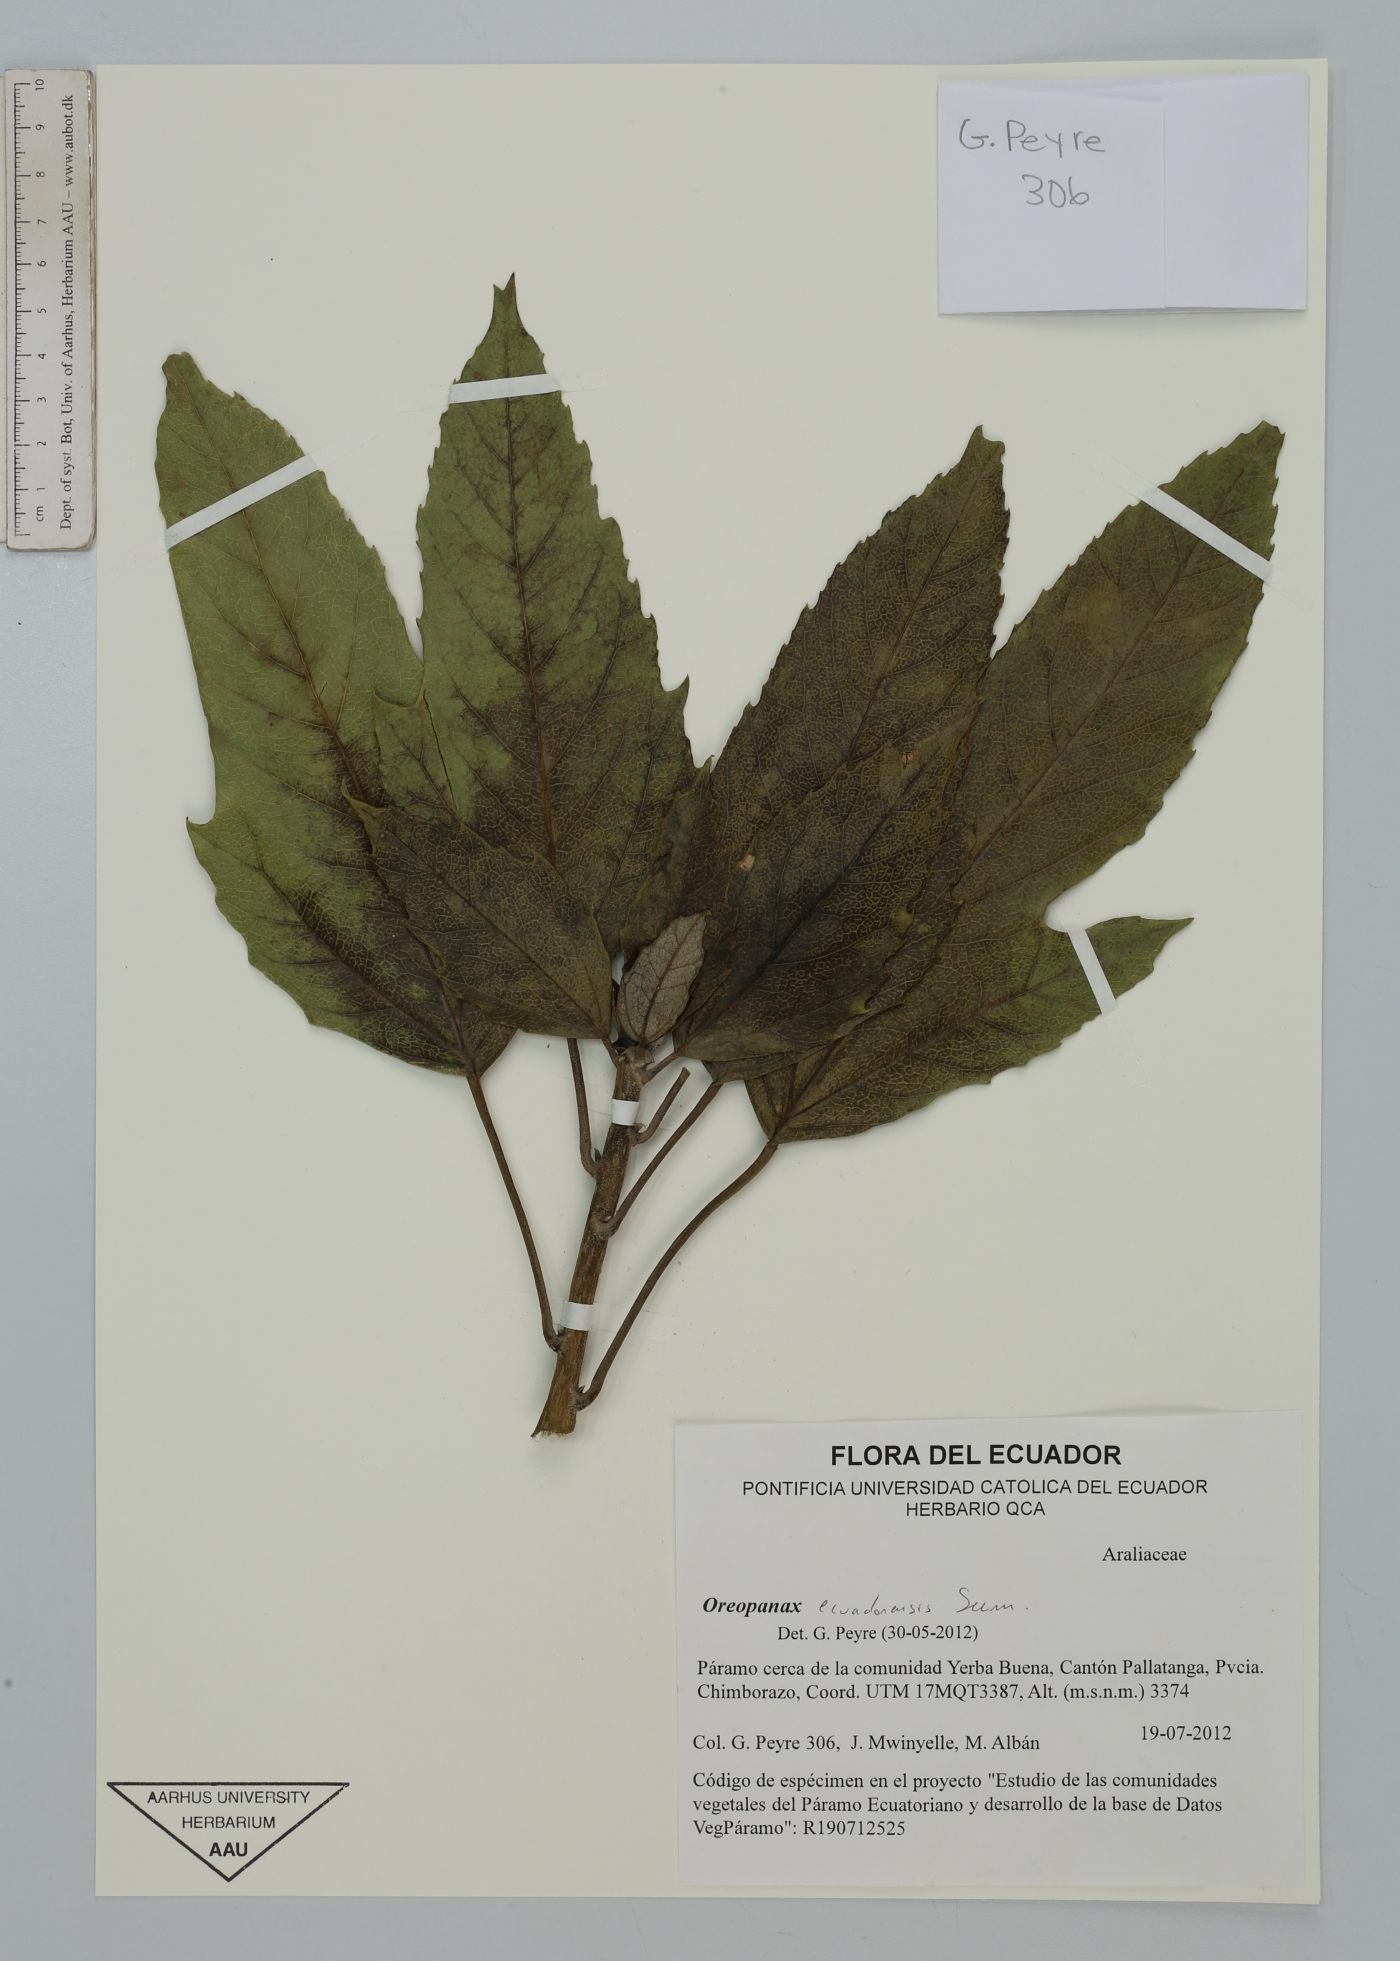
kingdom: Plantae
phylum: Tracheophyta
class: Magnoliopsida
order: Apiales
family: Araliaceae
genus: Oreopanax
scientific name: Oreopanax ecuadoriensis
